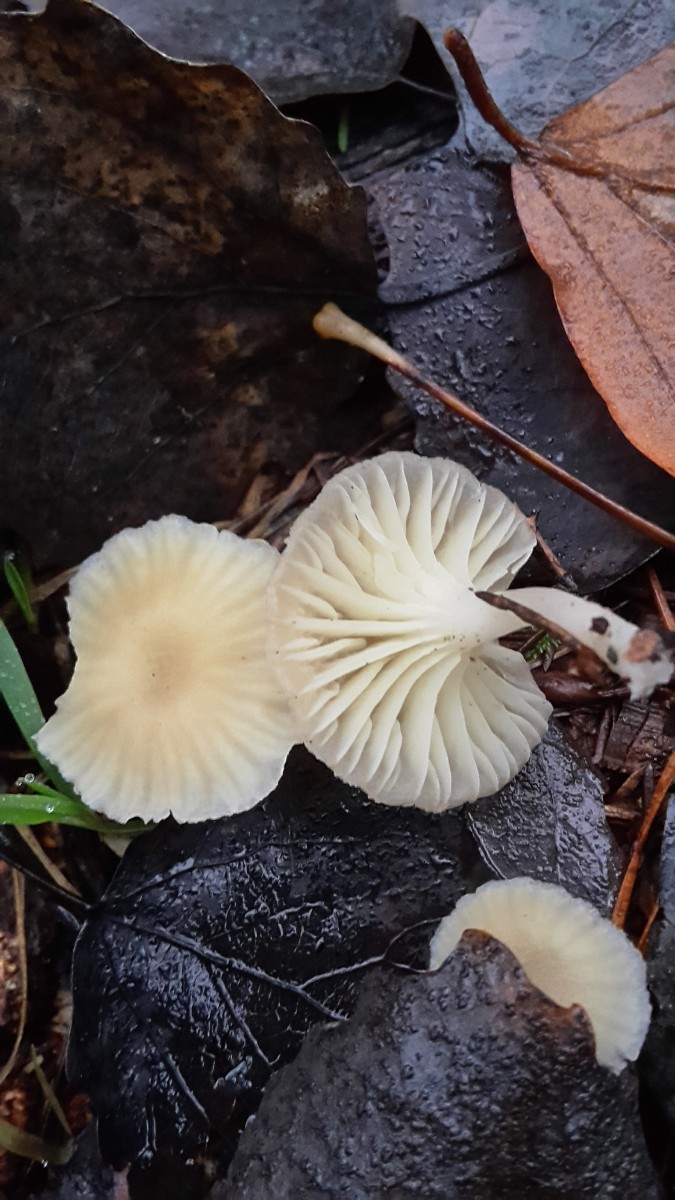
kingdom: Fungi
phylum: Basidiomycota
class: Agaricomycetes
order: Agaricales
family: Hygrophoraceae
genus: Chrysomphalina
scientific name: Chrysomphalina grossula
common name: stød-gyldenblad
